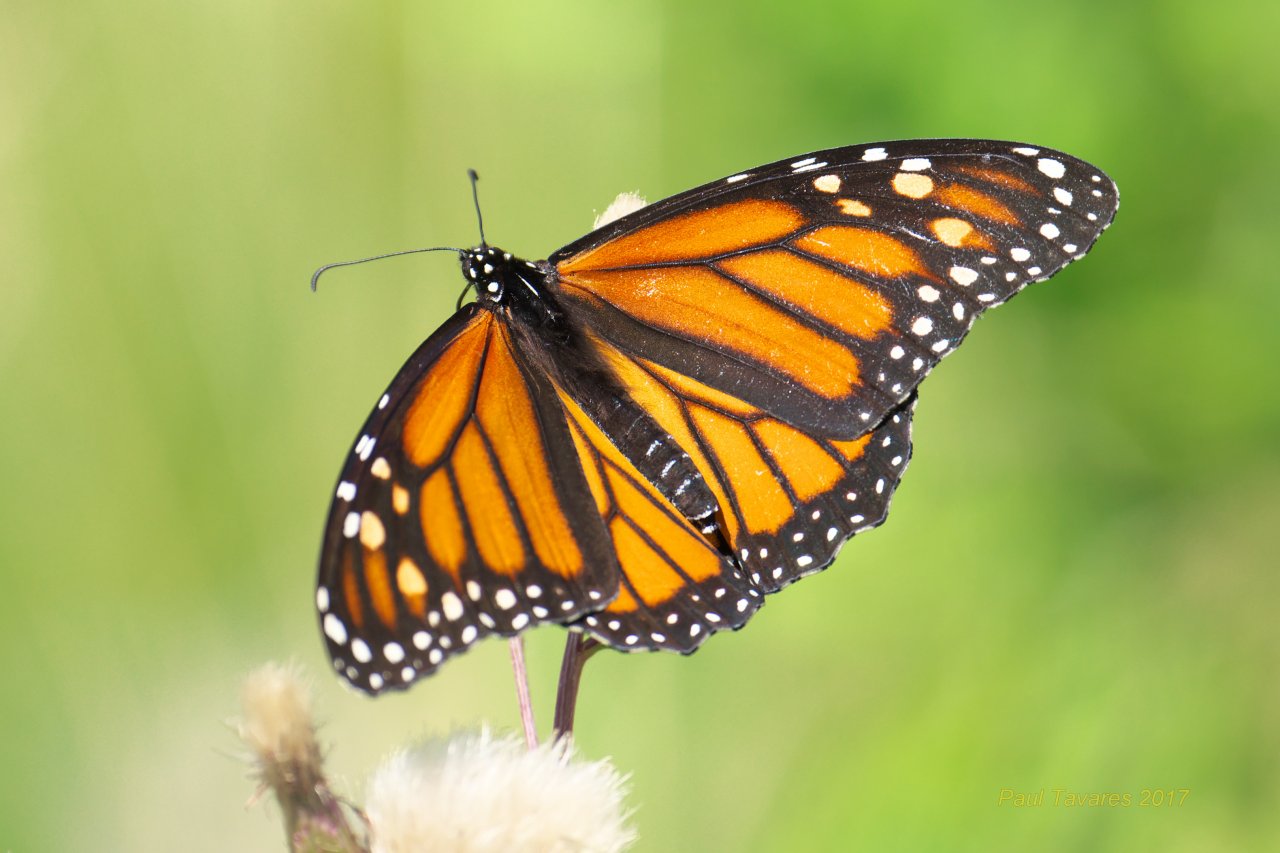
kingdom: Animalia
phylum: Arthropoda
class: Insecta
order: Lepidoptera
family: Nymphalidae
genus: Danaus
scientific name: Danaus plexippus
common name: Monarch
